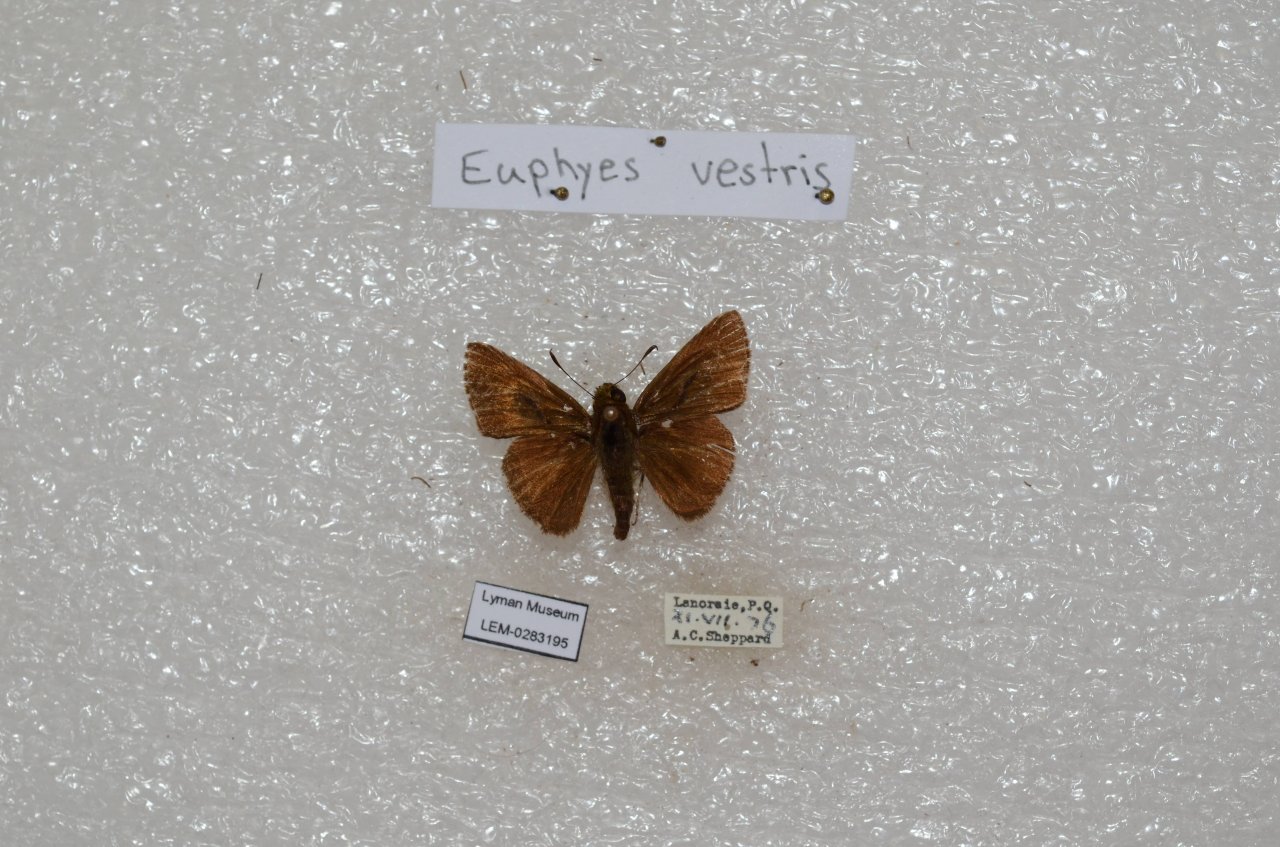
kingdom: Animalia
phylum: Arthropoda
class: Insecta
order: Lepidoptera
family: Hesperiidae
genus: Euphyes
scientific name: Euphyes vestris
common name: Dun Skipper
